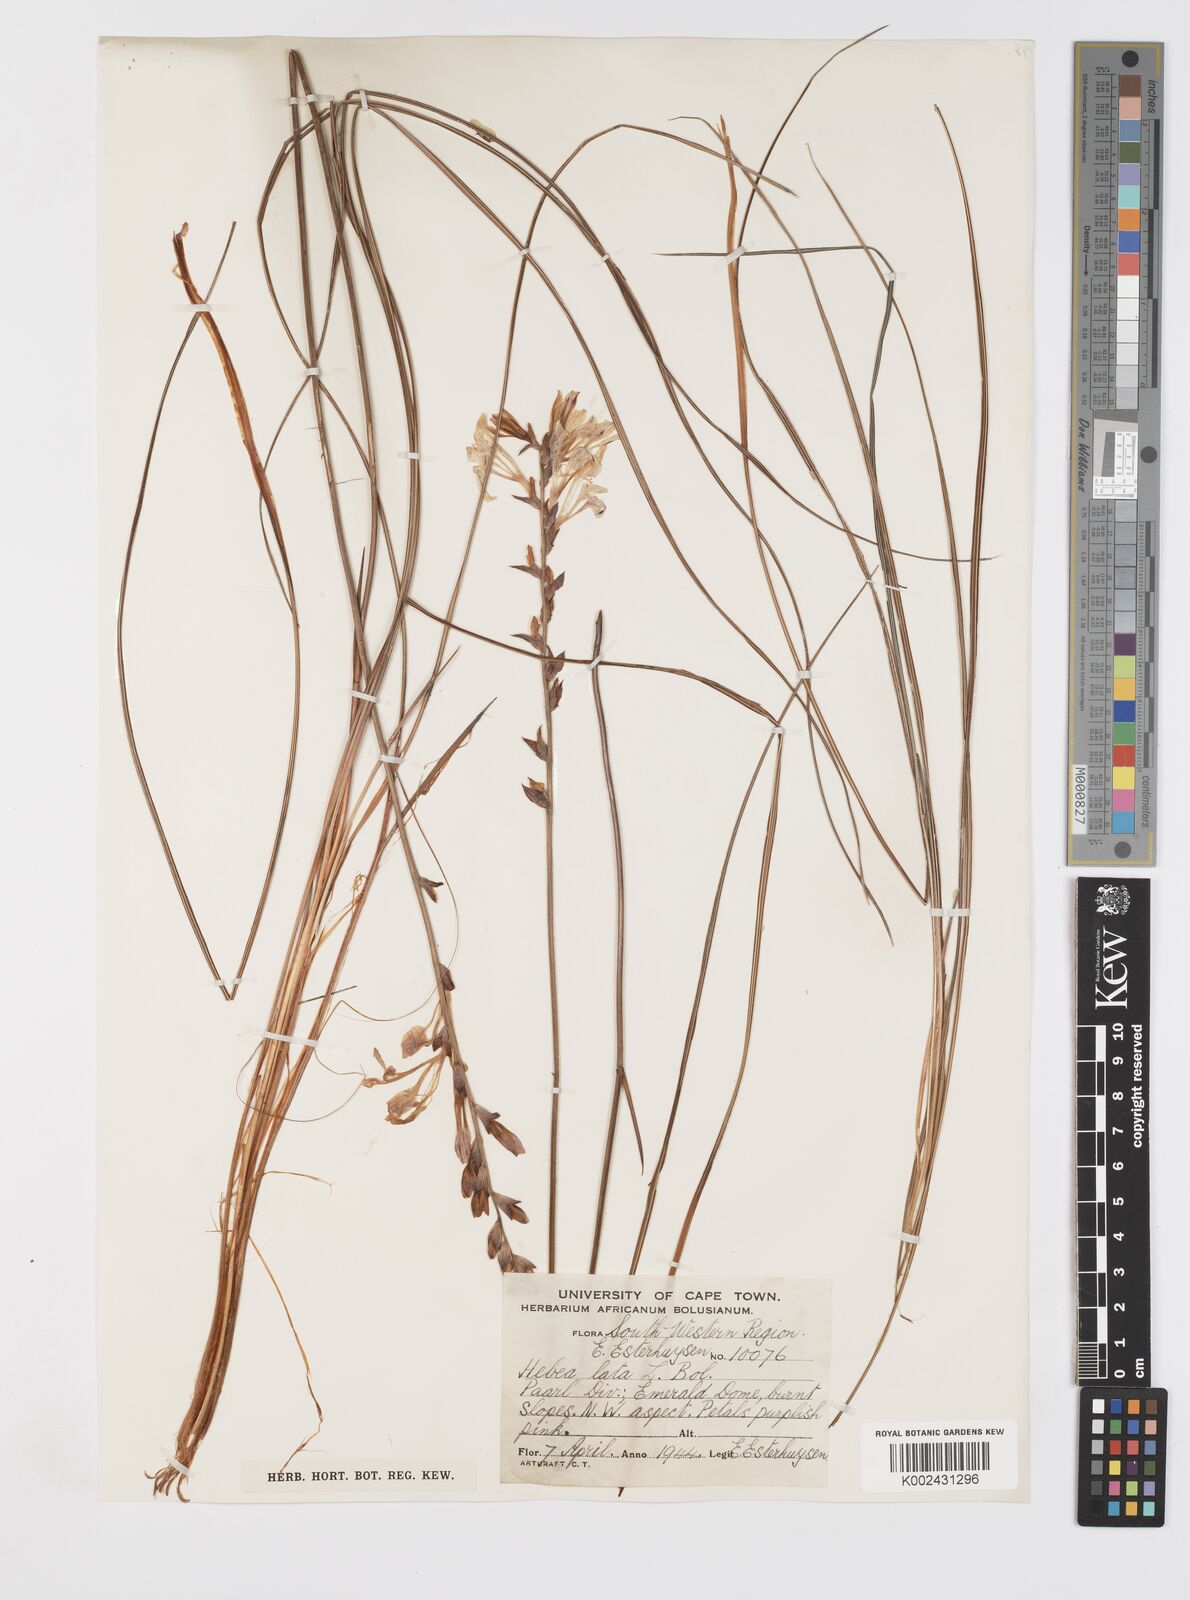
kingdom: Plantae
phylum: Tracheophyta
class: Liliopsida
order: Asparagales
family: Iridaceae
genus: Tritoniopsis
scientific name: Tritoniopsis lata
